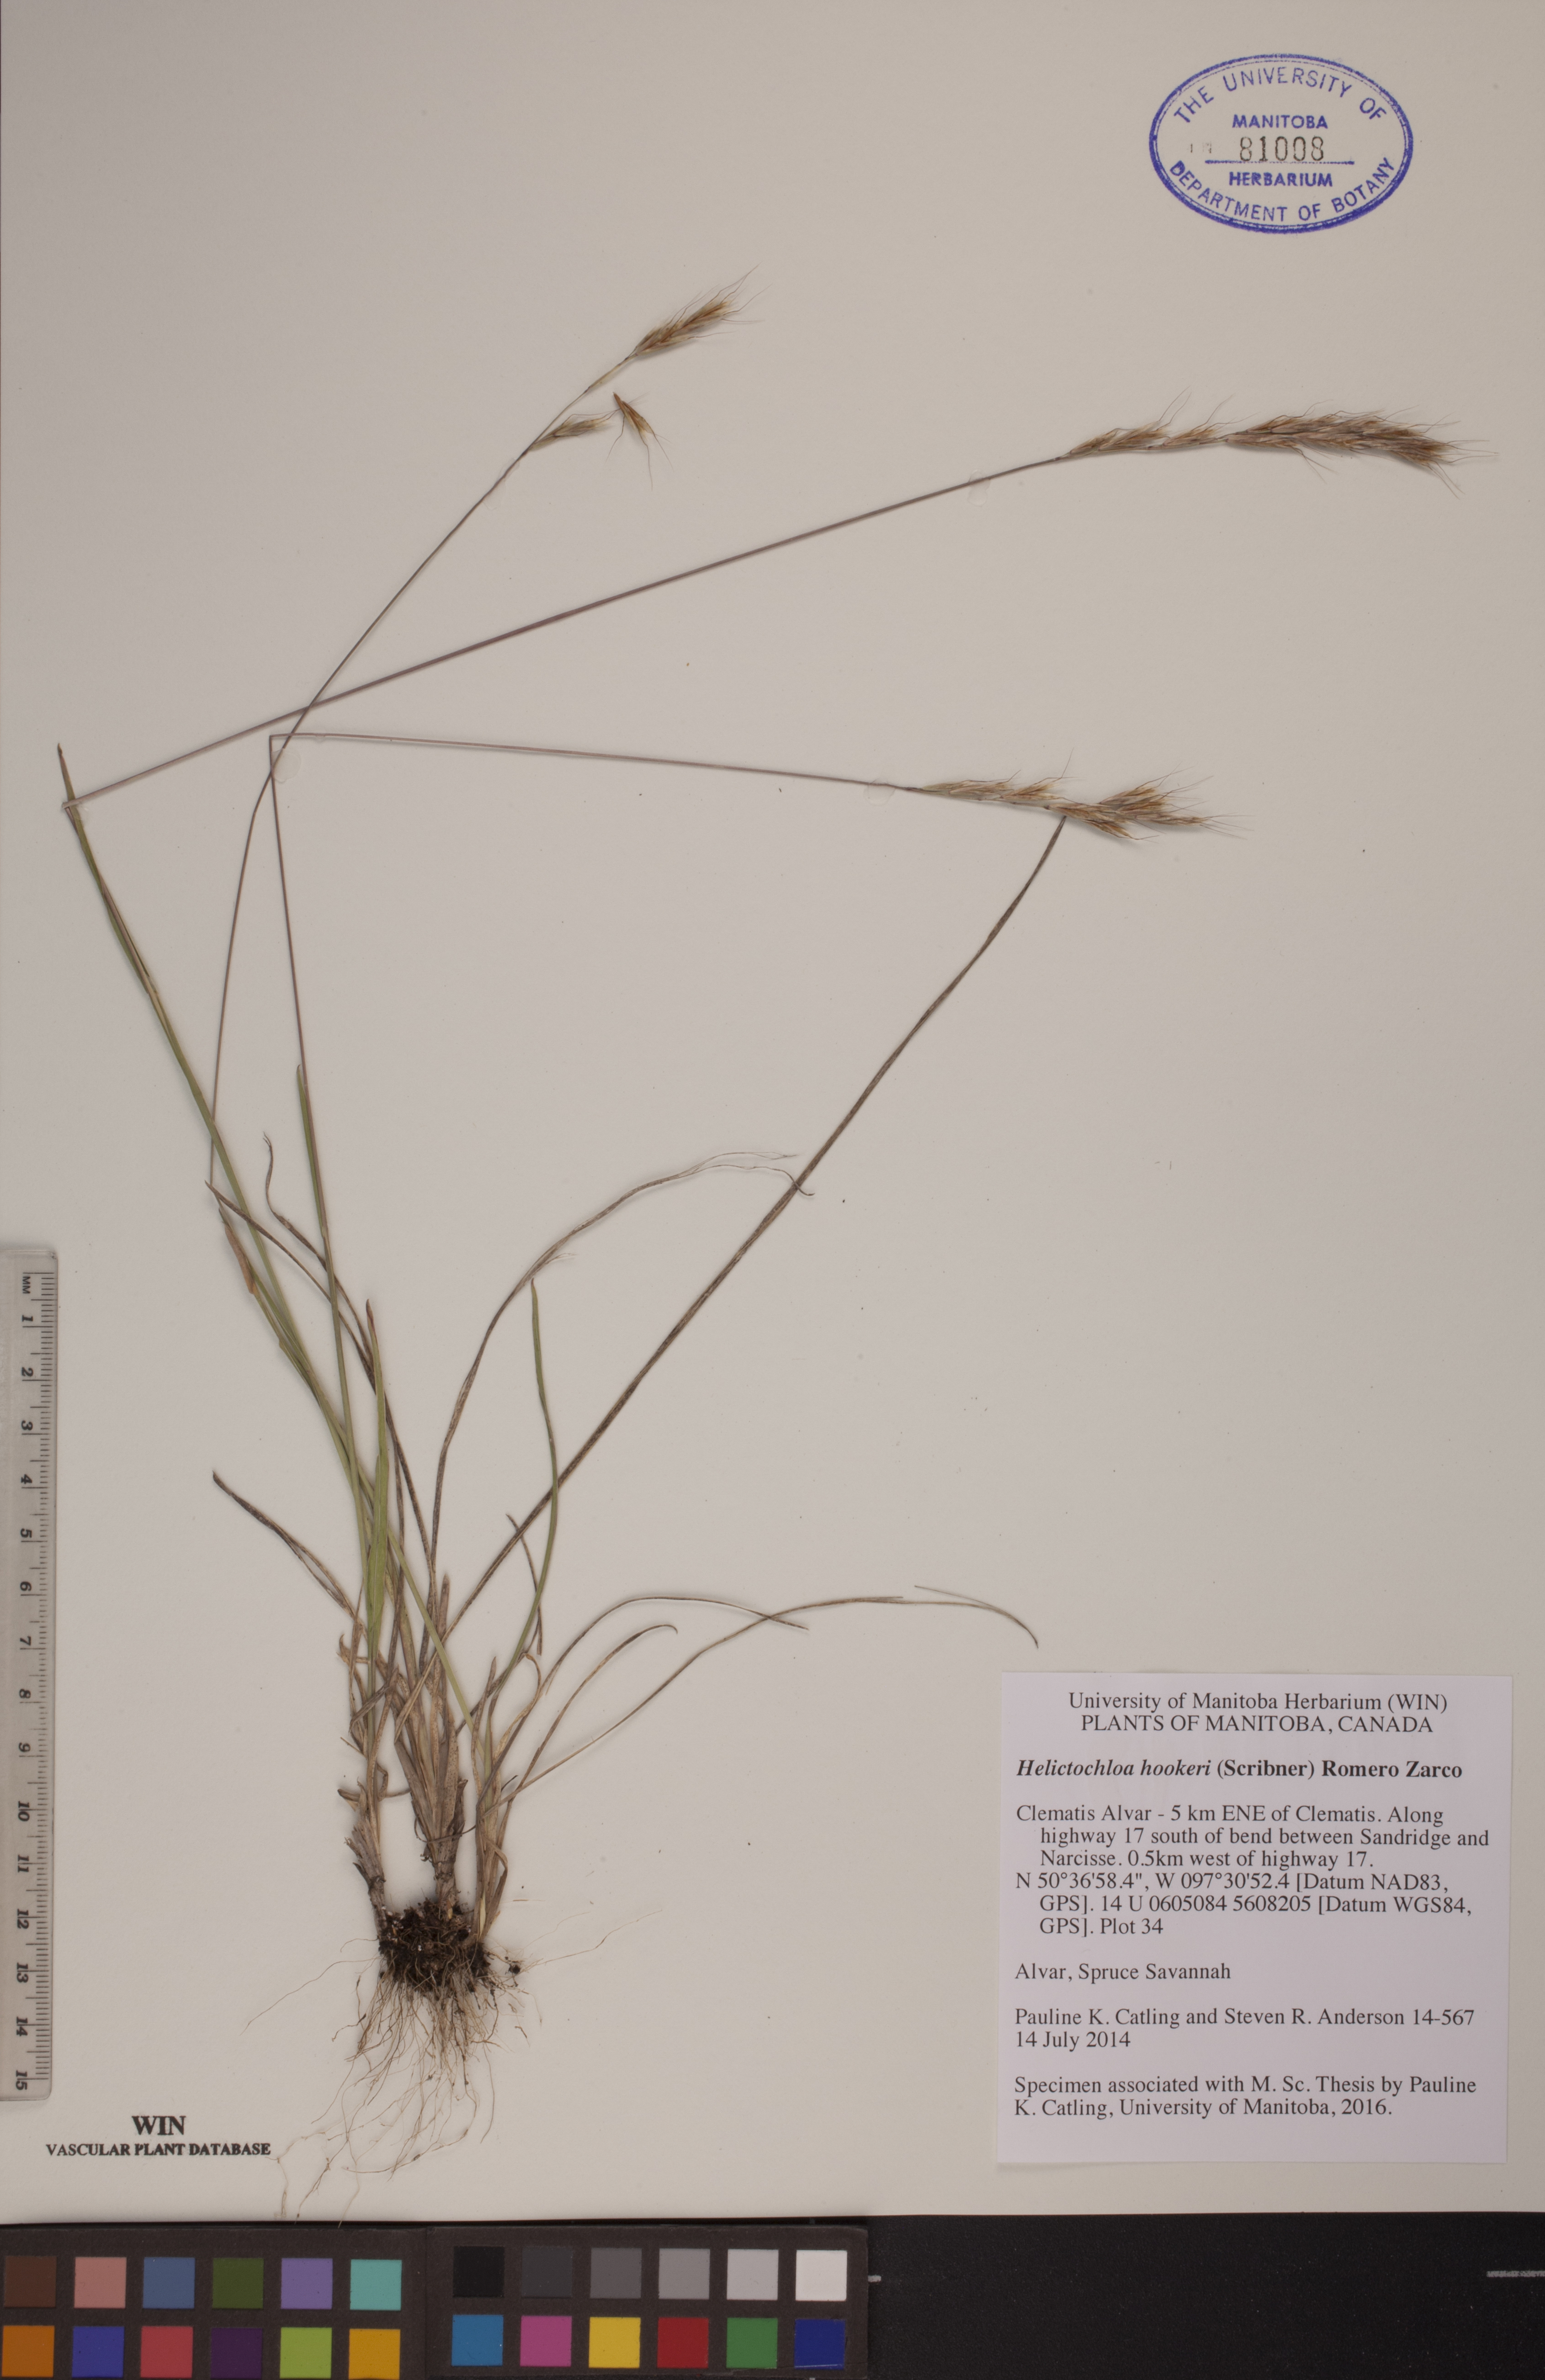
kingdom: Plantae
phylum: Tracheophyta
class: Liliopsida
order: Poales
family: Poaceae
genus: Helictochloa
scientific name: Helictochloa hookeri
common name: Hooker's alpine oatgrass
